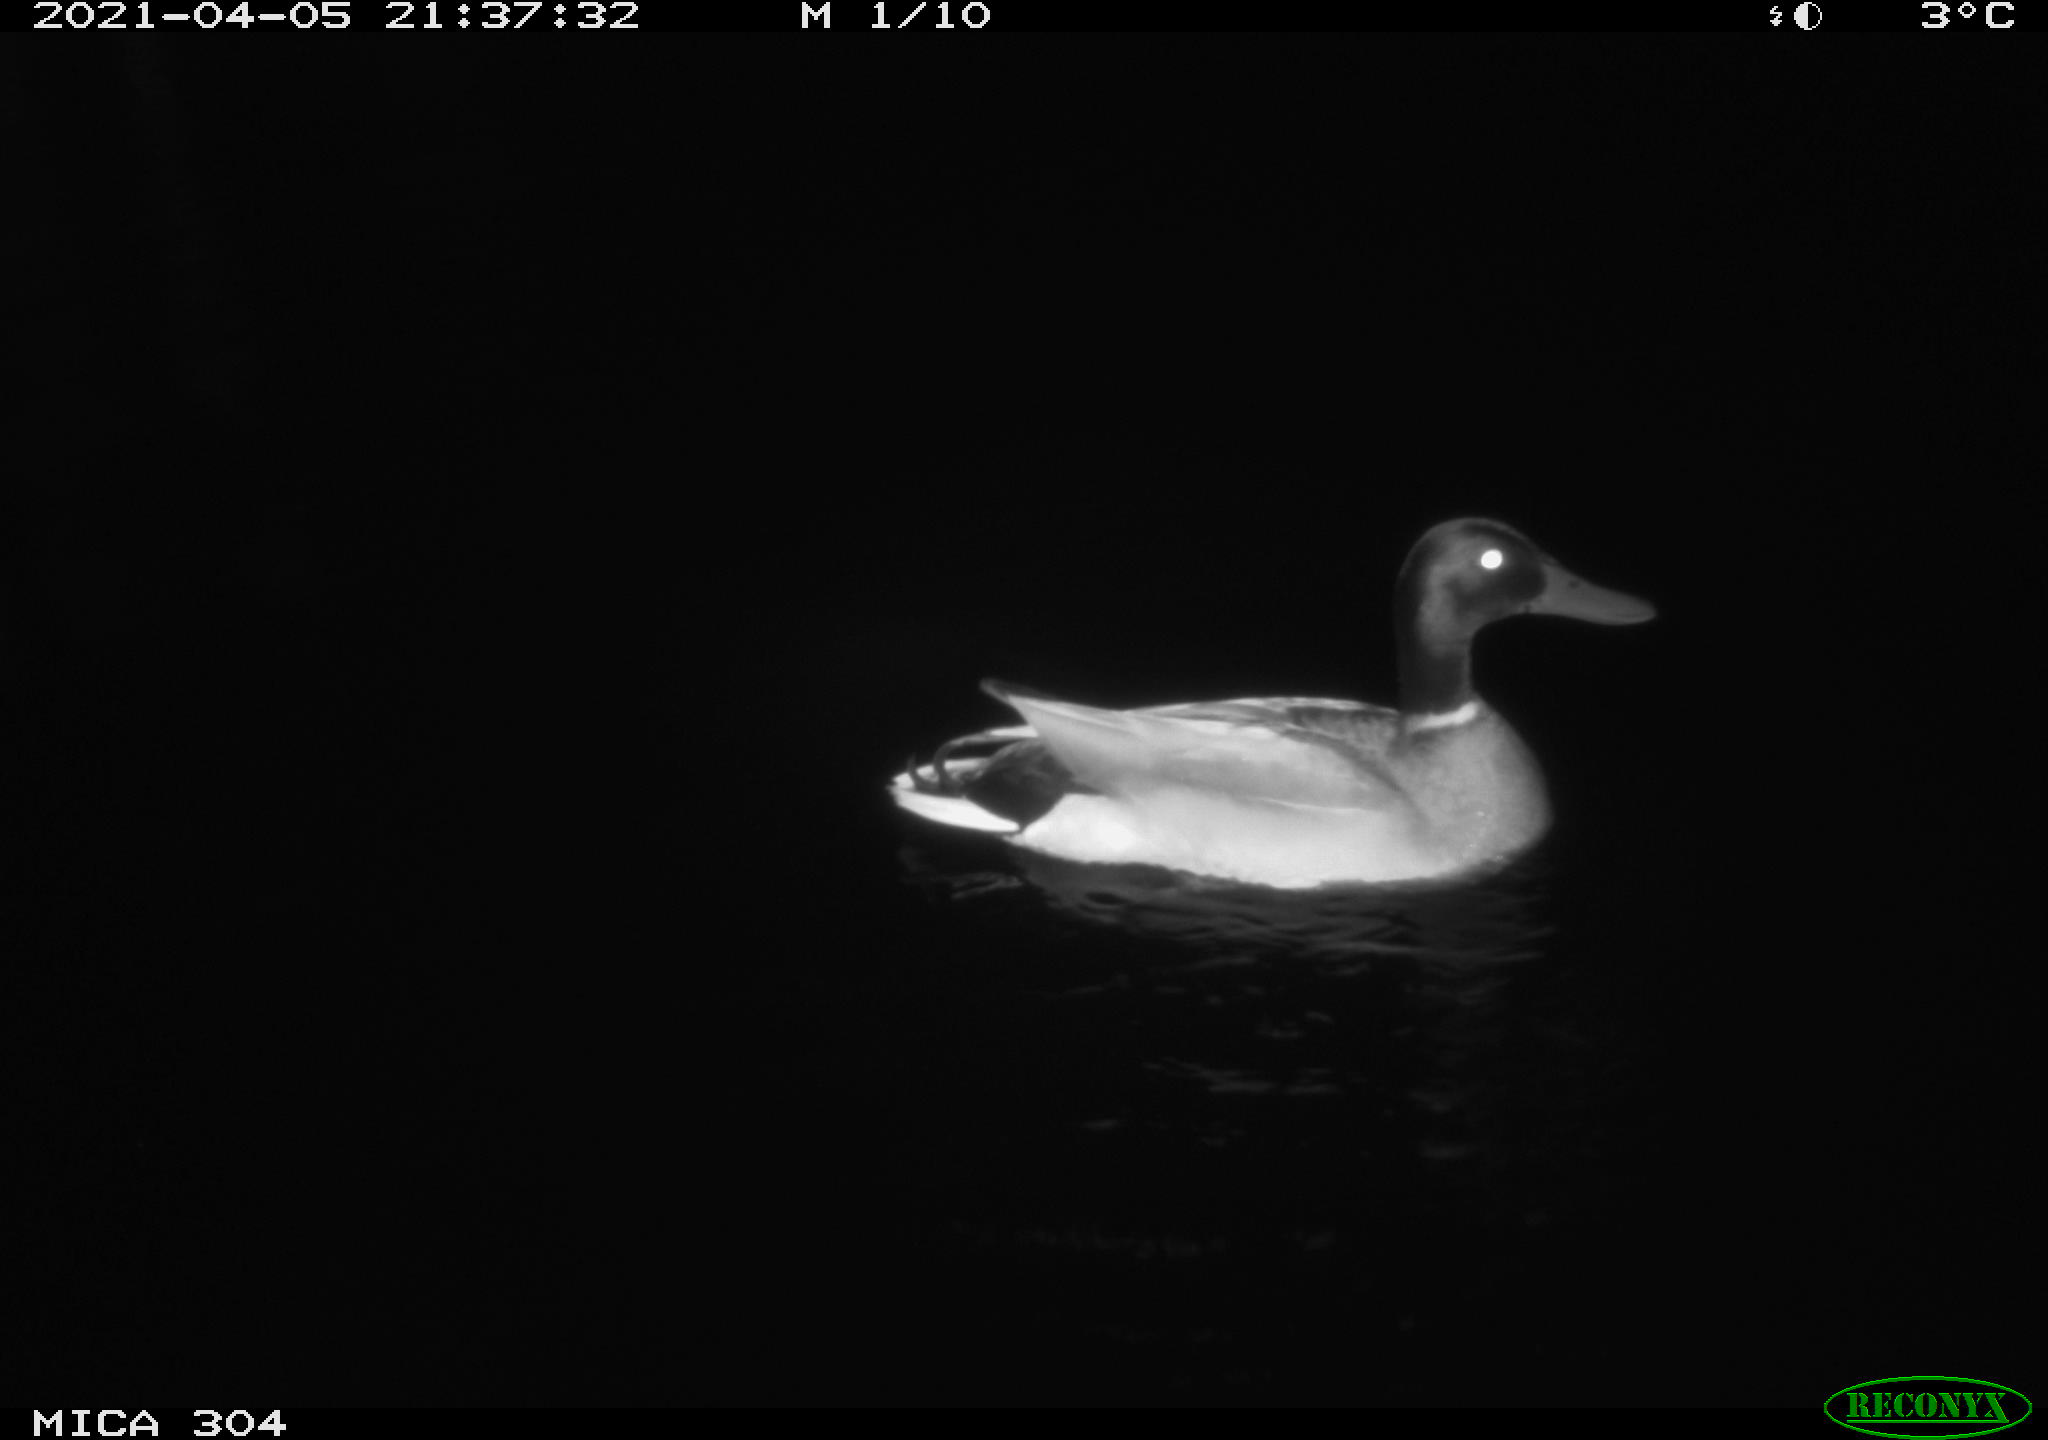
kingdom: Animalia
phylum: Chordata
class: Aves
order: Anseriformes
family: Anatidae
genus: Anas
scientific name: Anas
